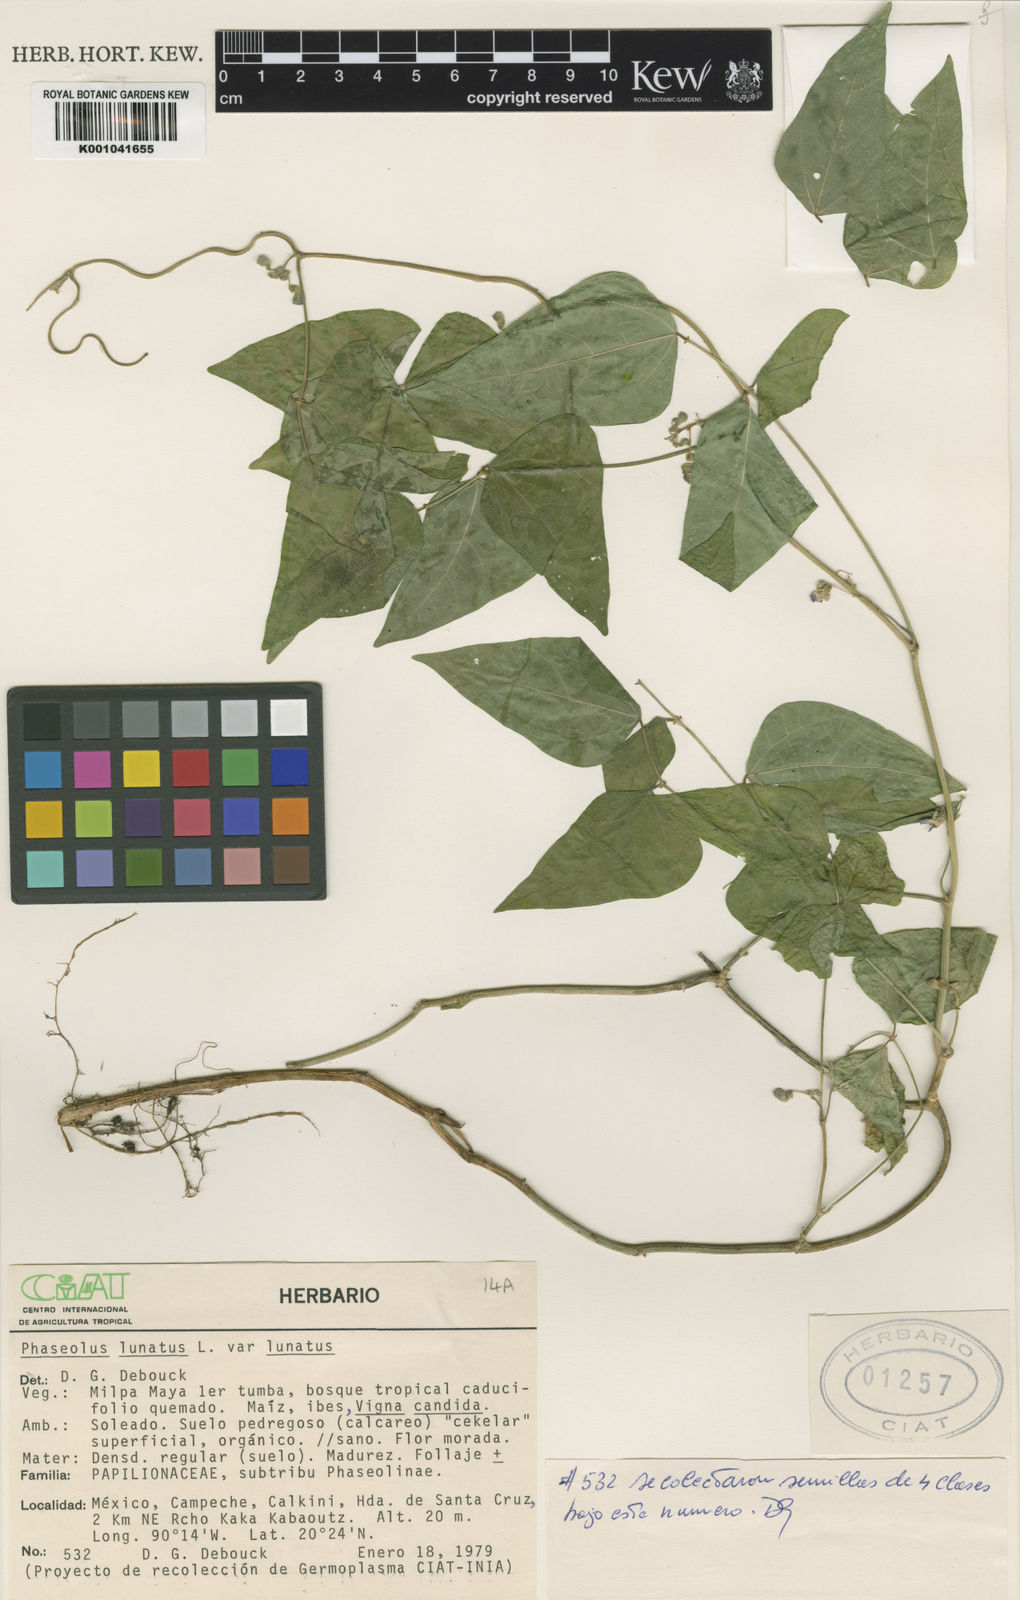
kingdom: Plantae
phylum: Tracheophyta
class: Magnoliopsida
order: Fabales
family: Fabaceae
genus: Phaseolus
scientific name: Phaseolus
